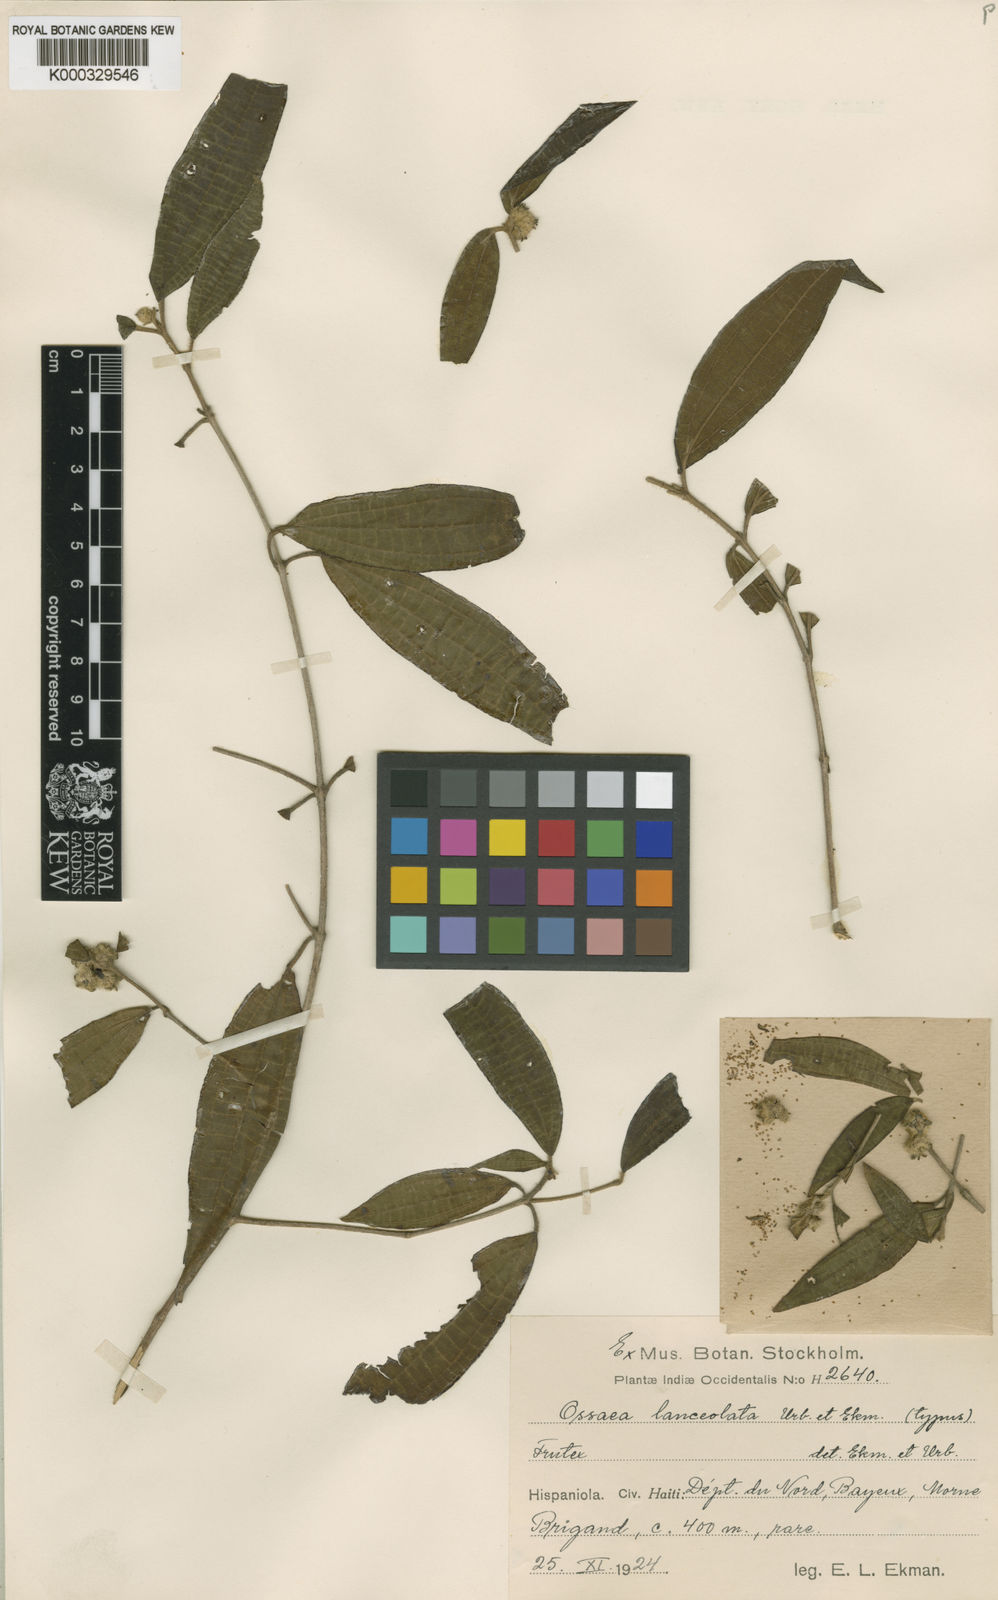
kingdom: Plantae
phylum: Tracheophyta
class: Magnoliopsida
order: Myrtales
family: Melastomataceae
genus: Miconia
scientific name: Miconia echinocarpa
